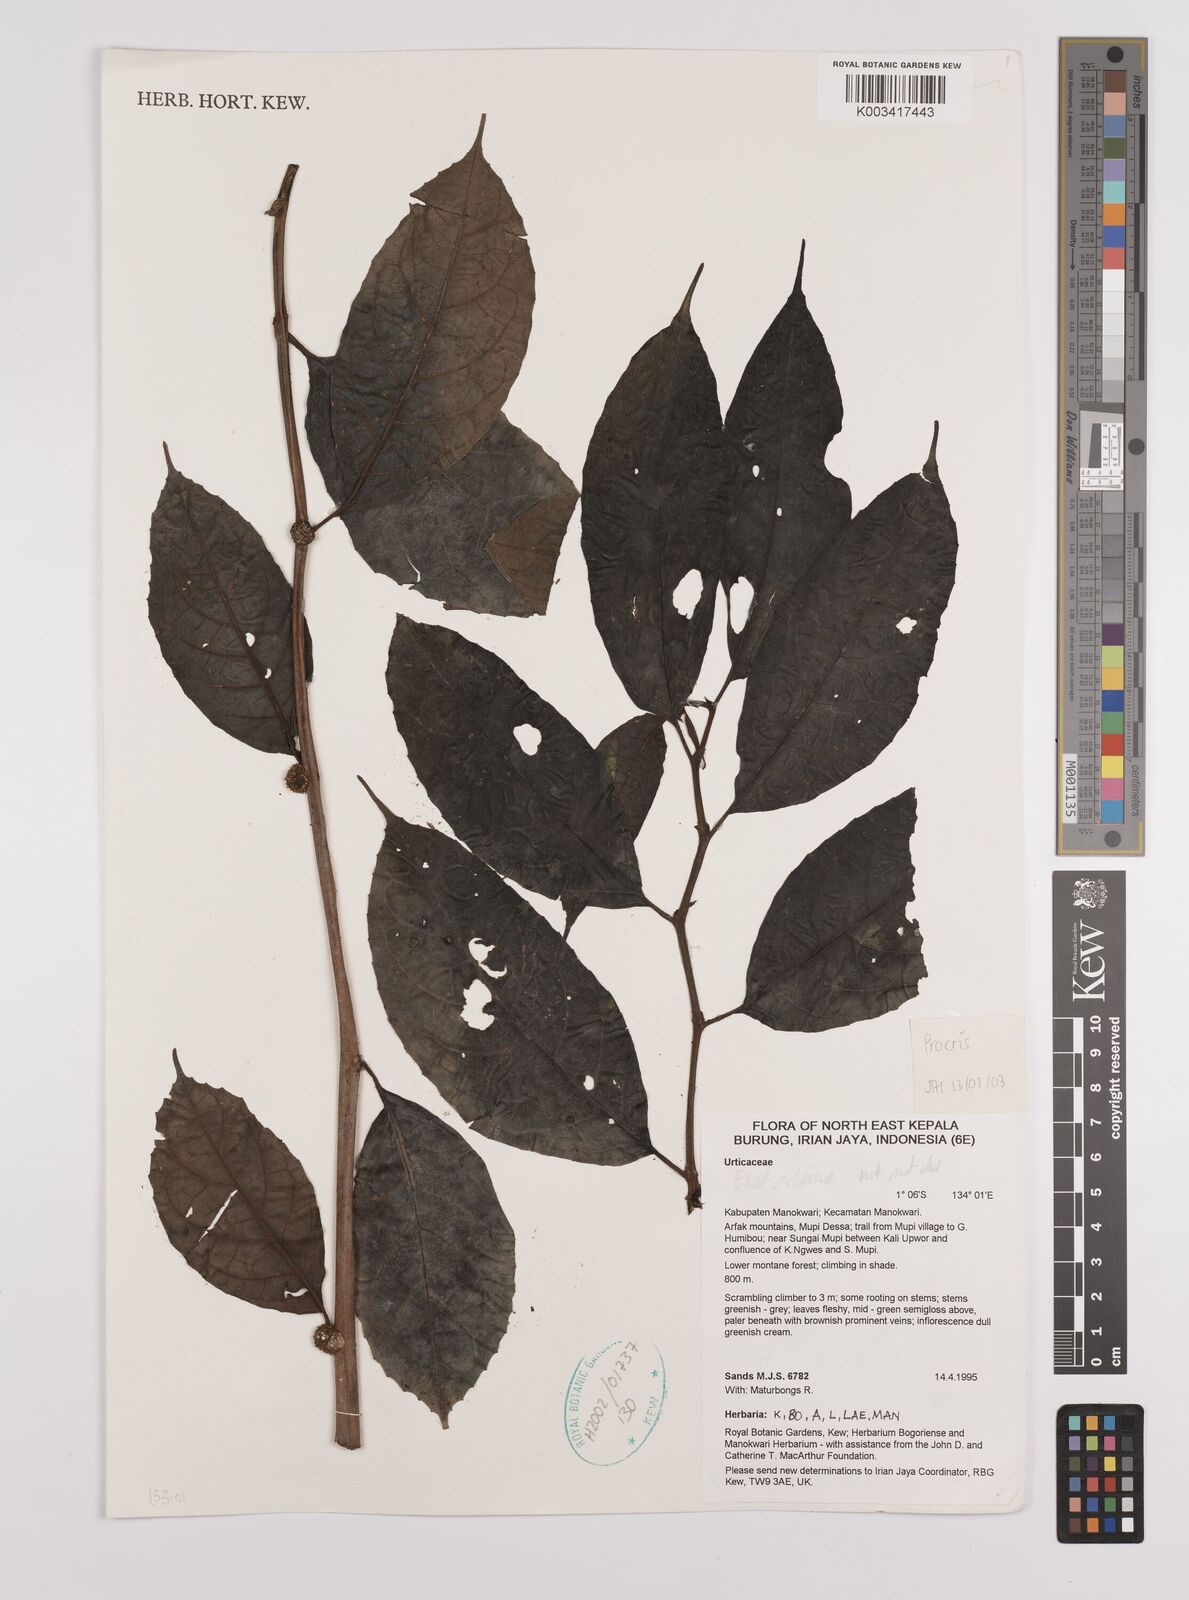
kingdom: Plantae
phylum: Tracheophyta
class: Magnoliopsida
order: Rosales
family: Urticaceae
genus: Procris
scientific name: Procris
